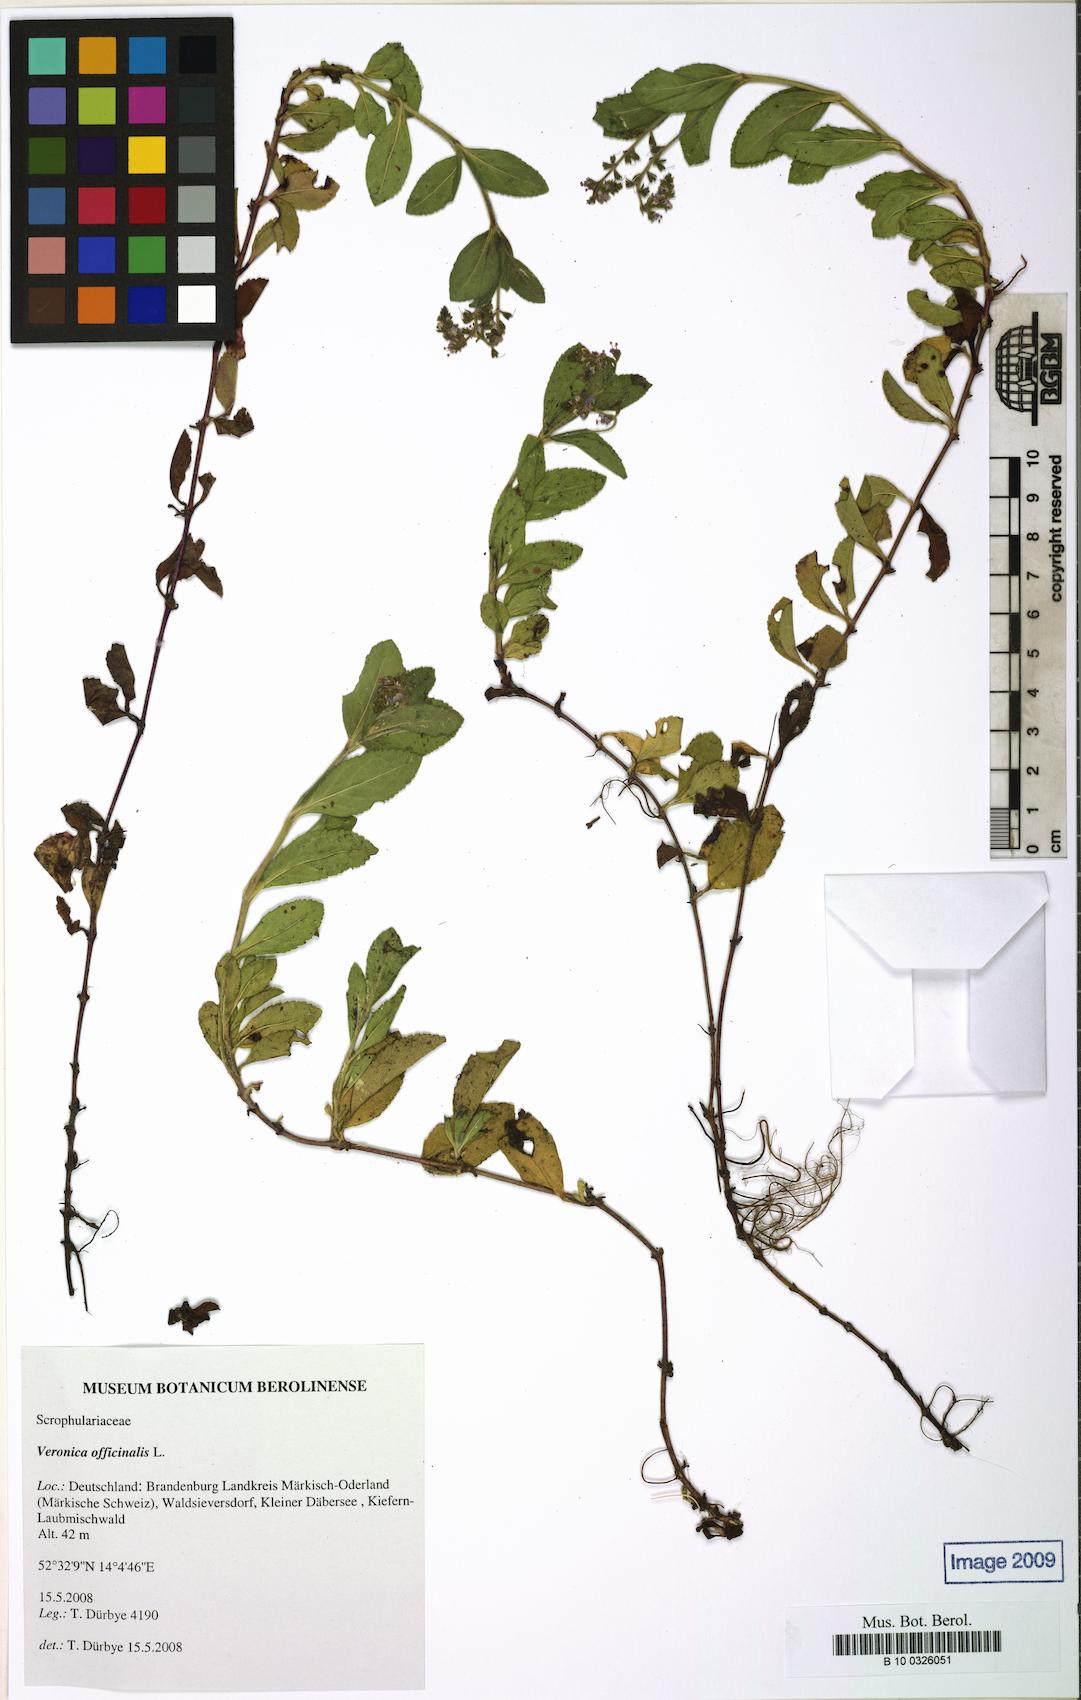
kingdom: Plantae
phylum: Tracheophyta
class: Magnoliopsida
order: Lamiales
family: Plantaginaceae
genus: Veronica
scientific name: Veronica officinalis
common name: Common speedwell
